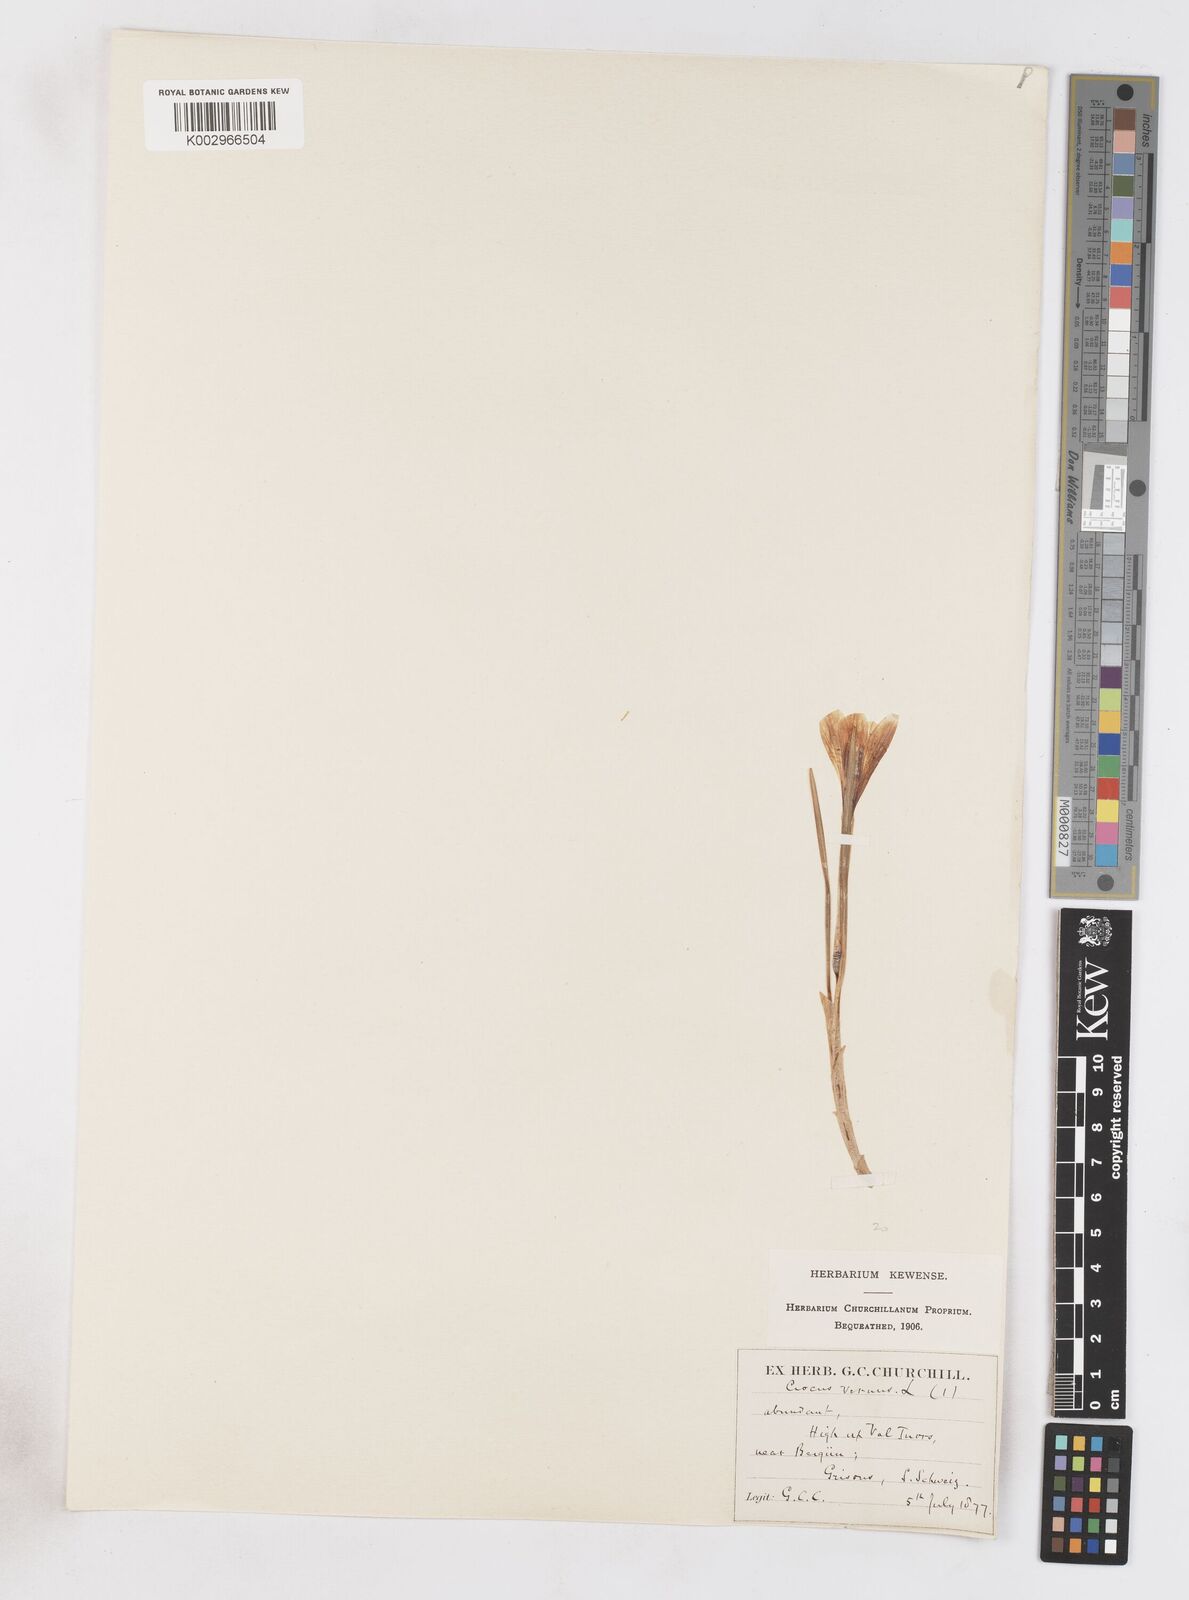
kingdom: Plantae
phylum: Tracheophyta
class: Liliopsida
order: Asparagales
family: Iridaceae
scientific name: Iridaceae
